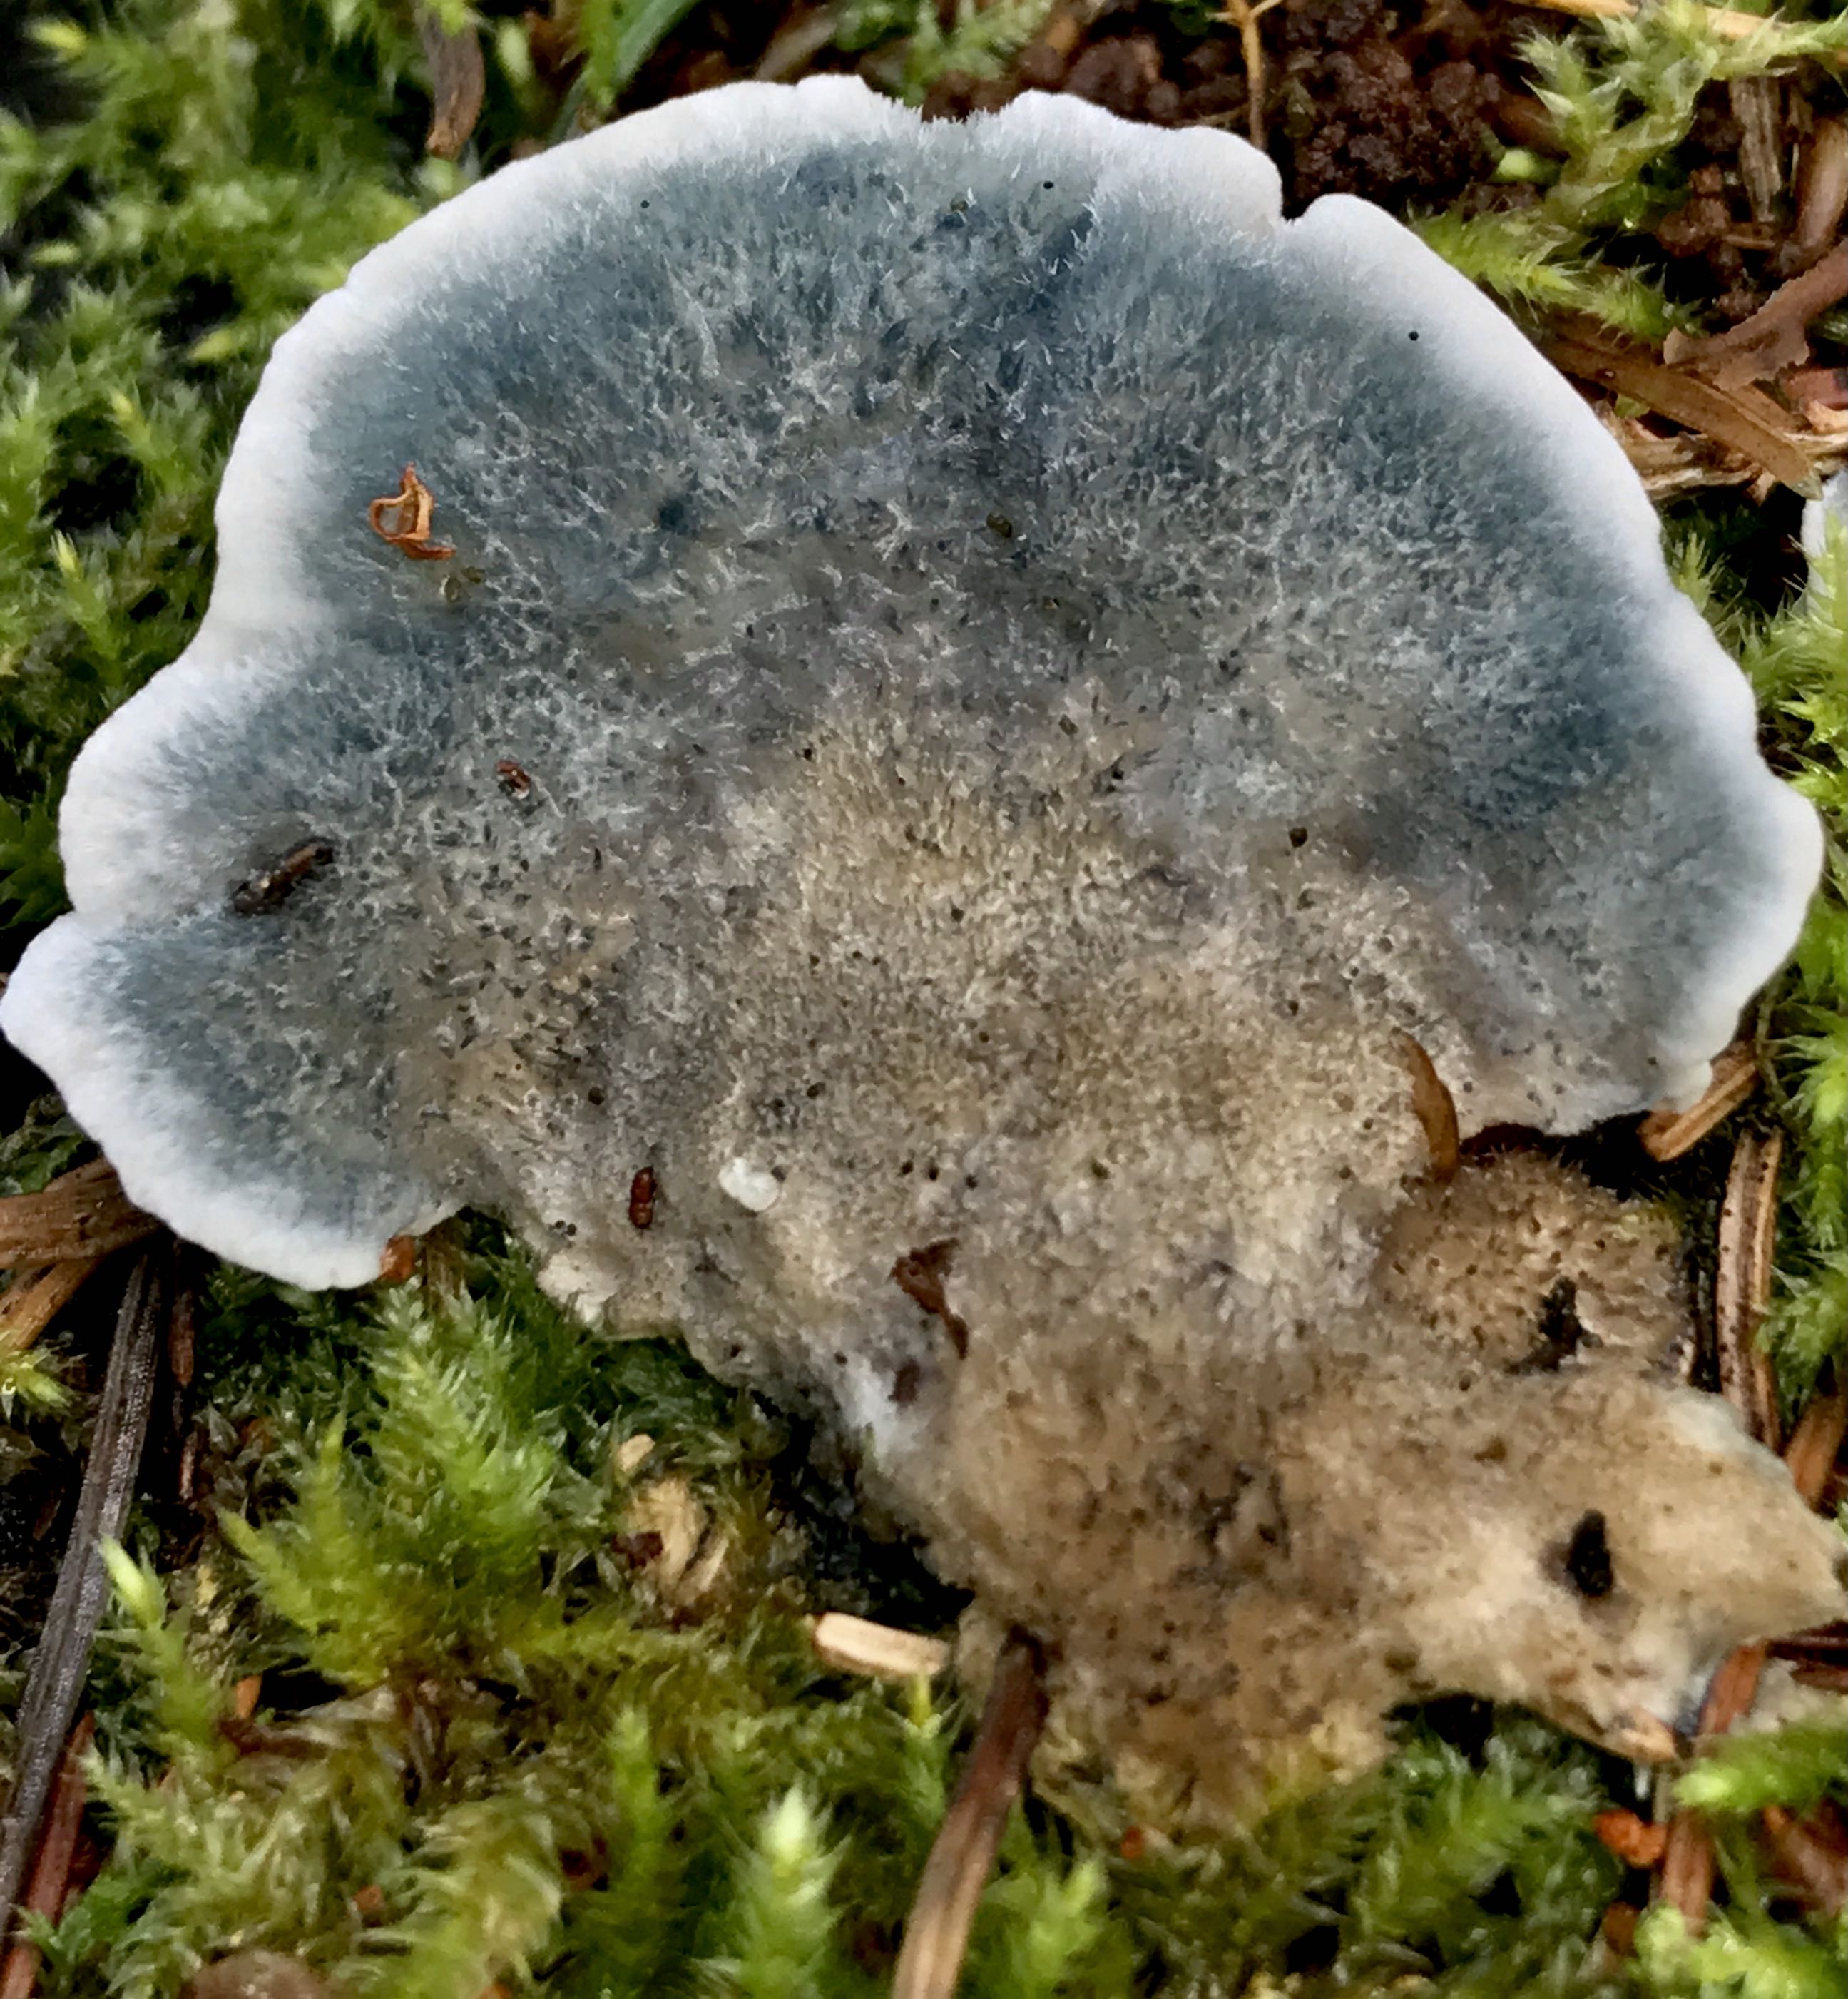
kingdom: Fungi
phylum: Basidiomycota
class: Agaricomycetes
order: Polyporales
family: Polyporaceae
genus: Cyanosporus
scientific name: Cyanosporus caesius
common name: blålig kødporesvamp
